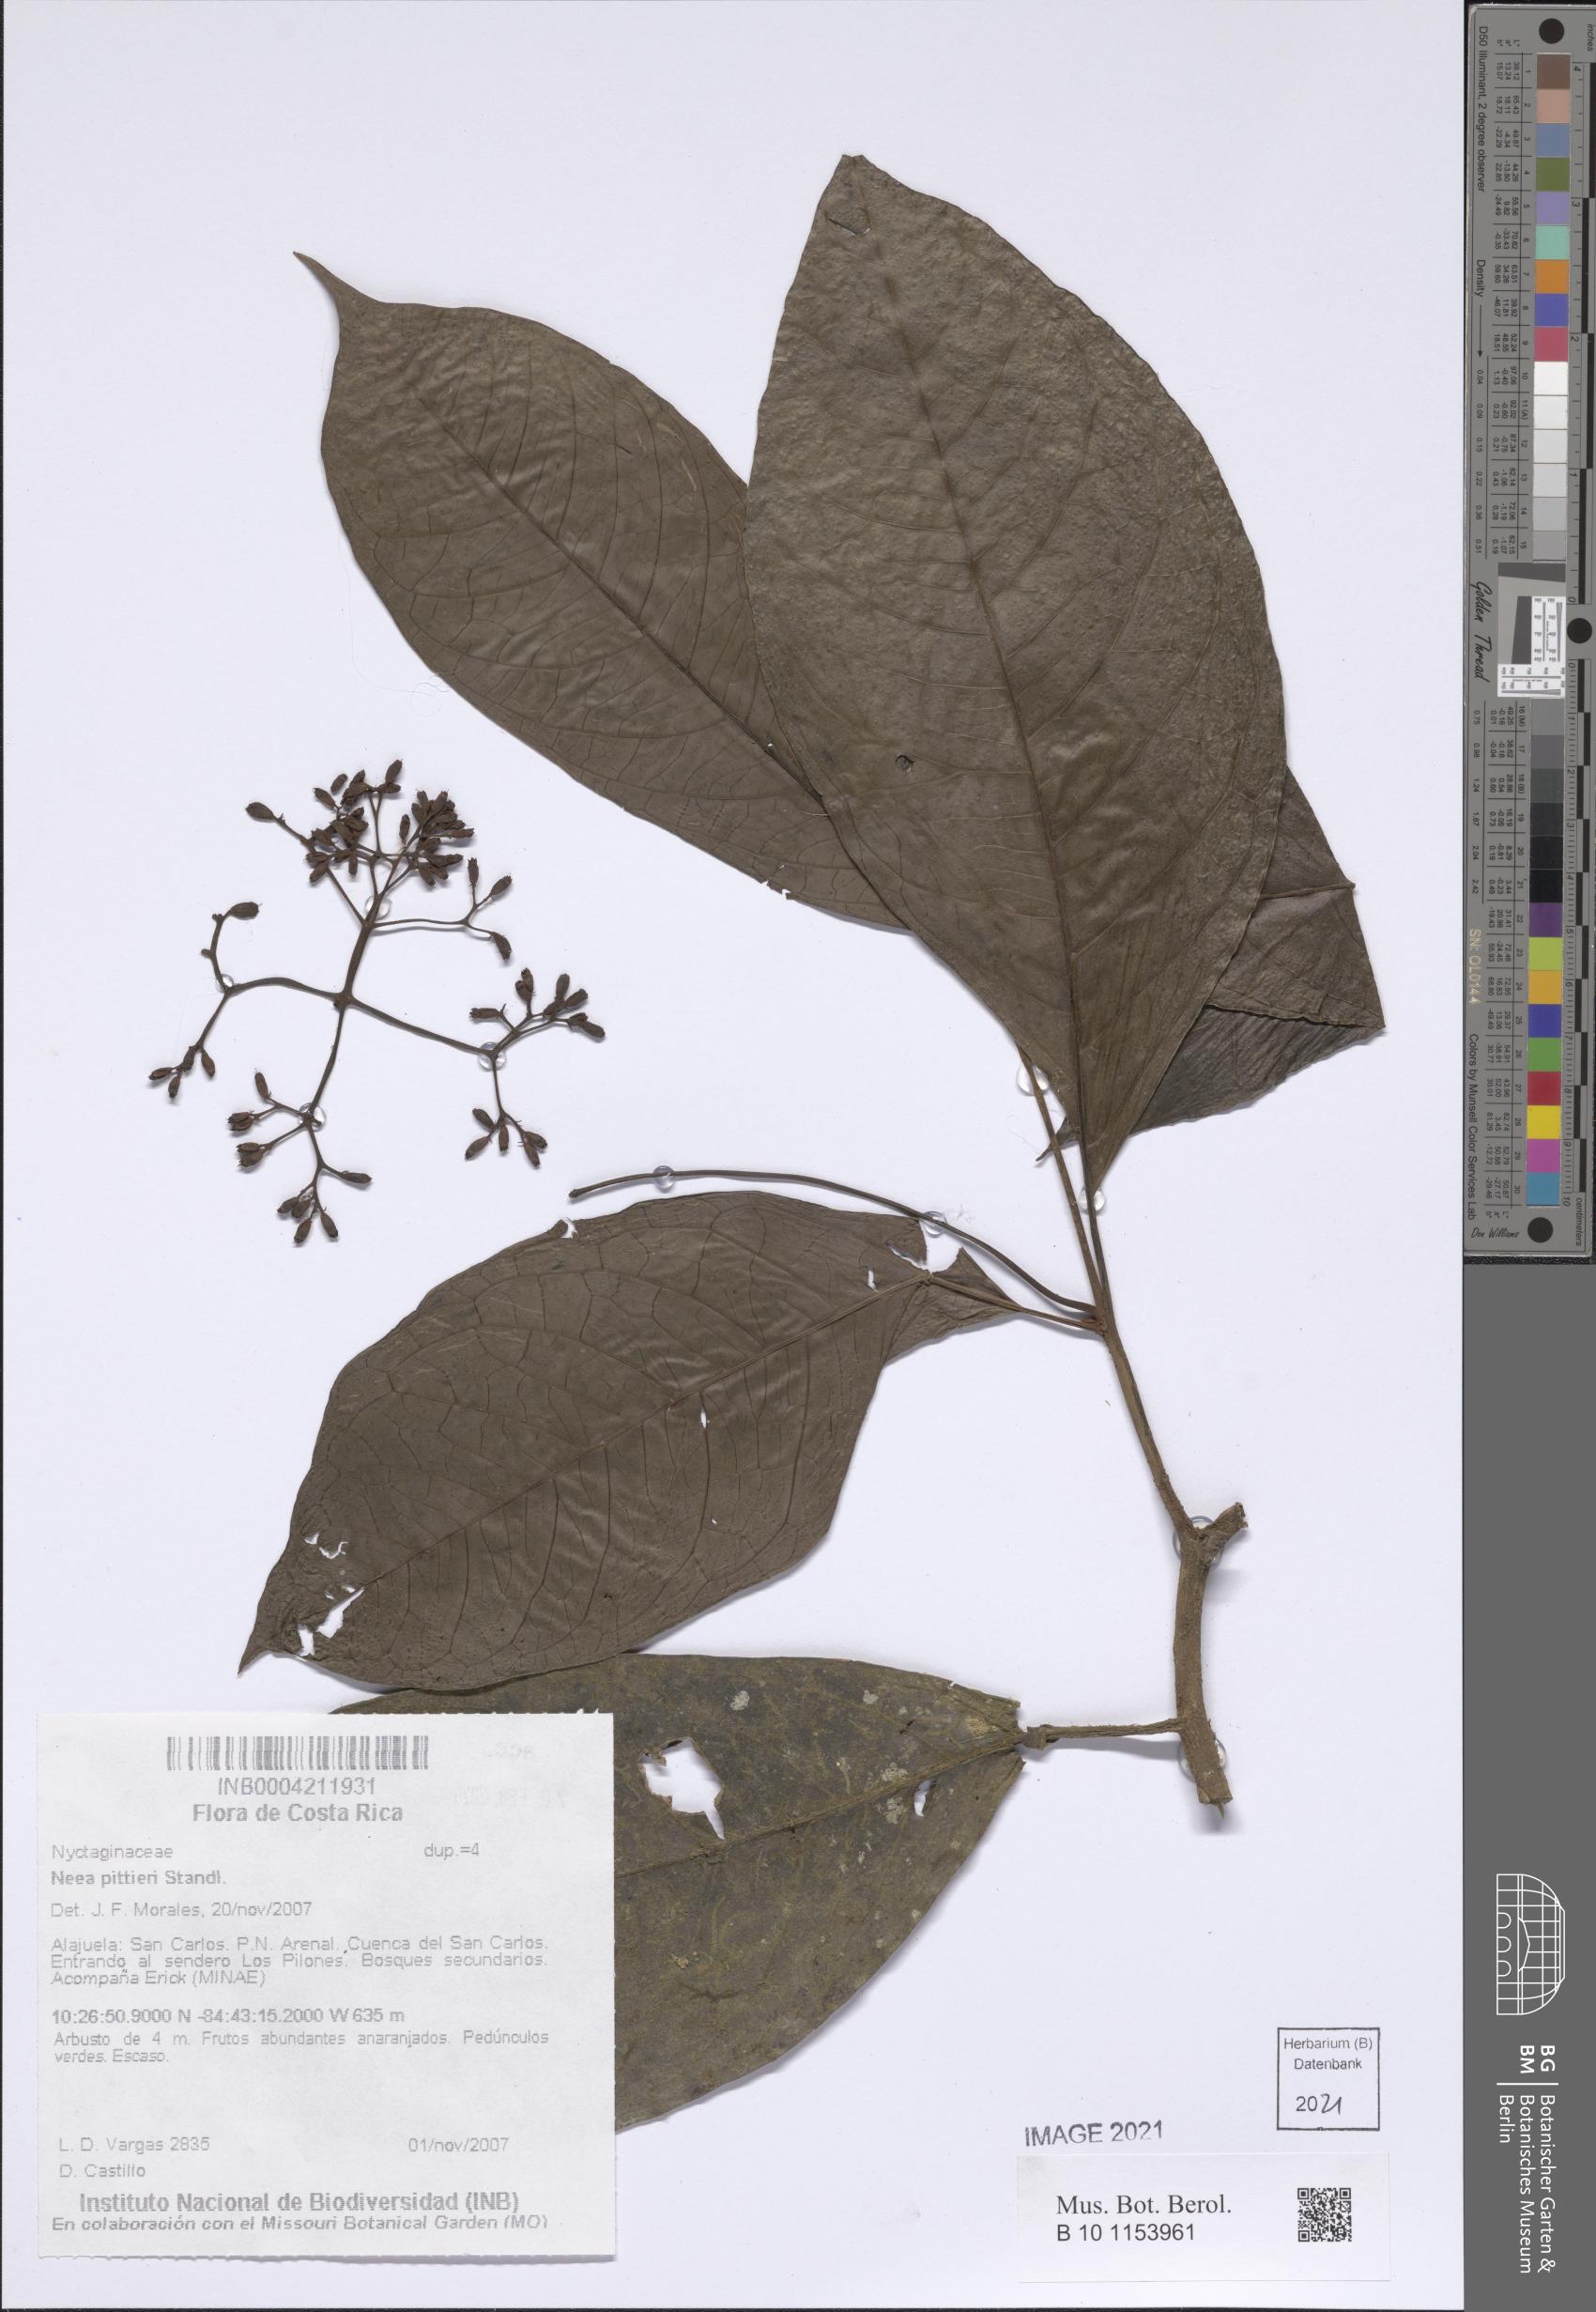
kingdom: Plantae
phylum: Tracheophyta
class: Magnoliopsida
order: Caryophyllales
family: Nyctaginaceae
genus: Neea
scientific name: Neea pittieri
